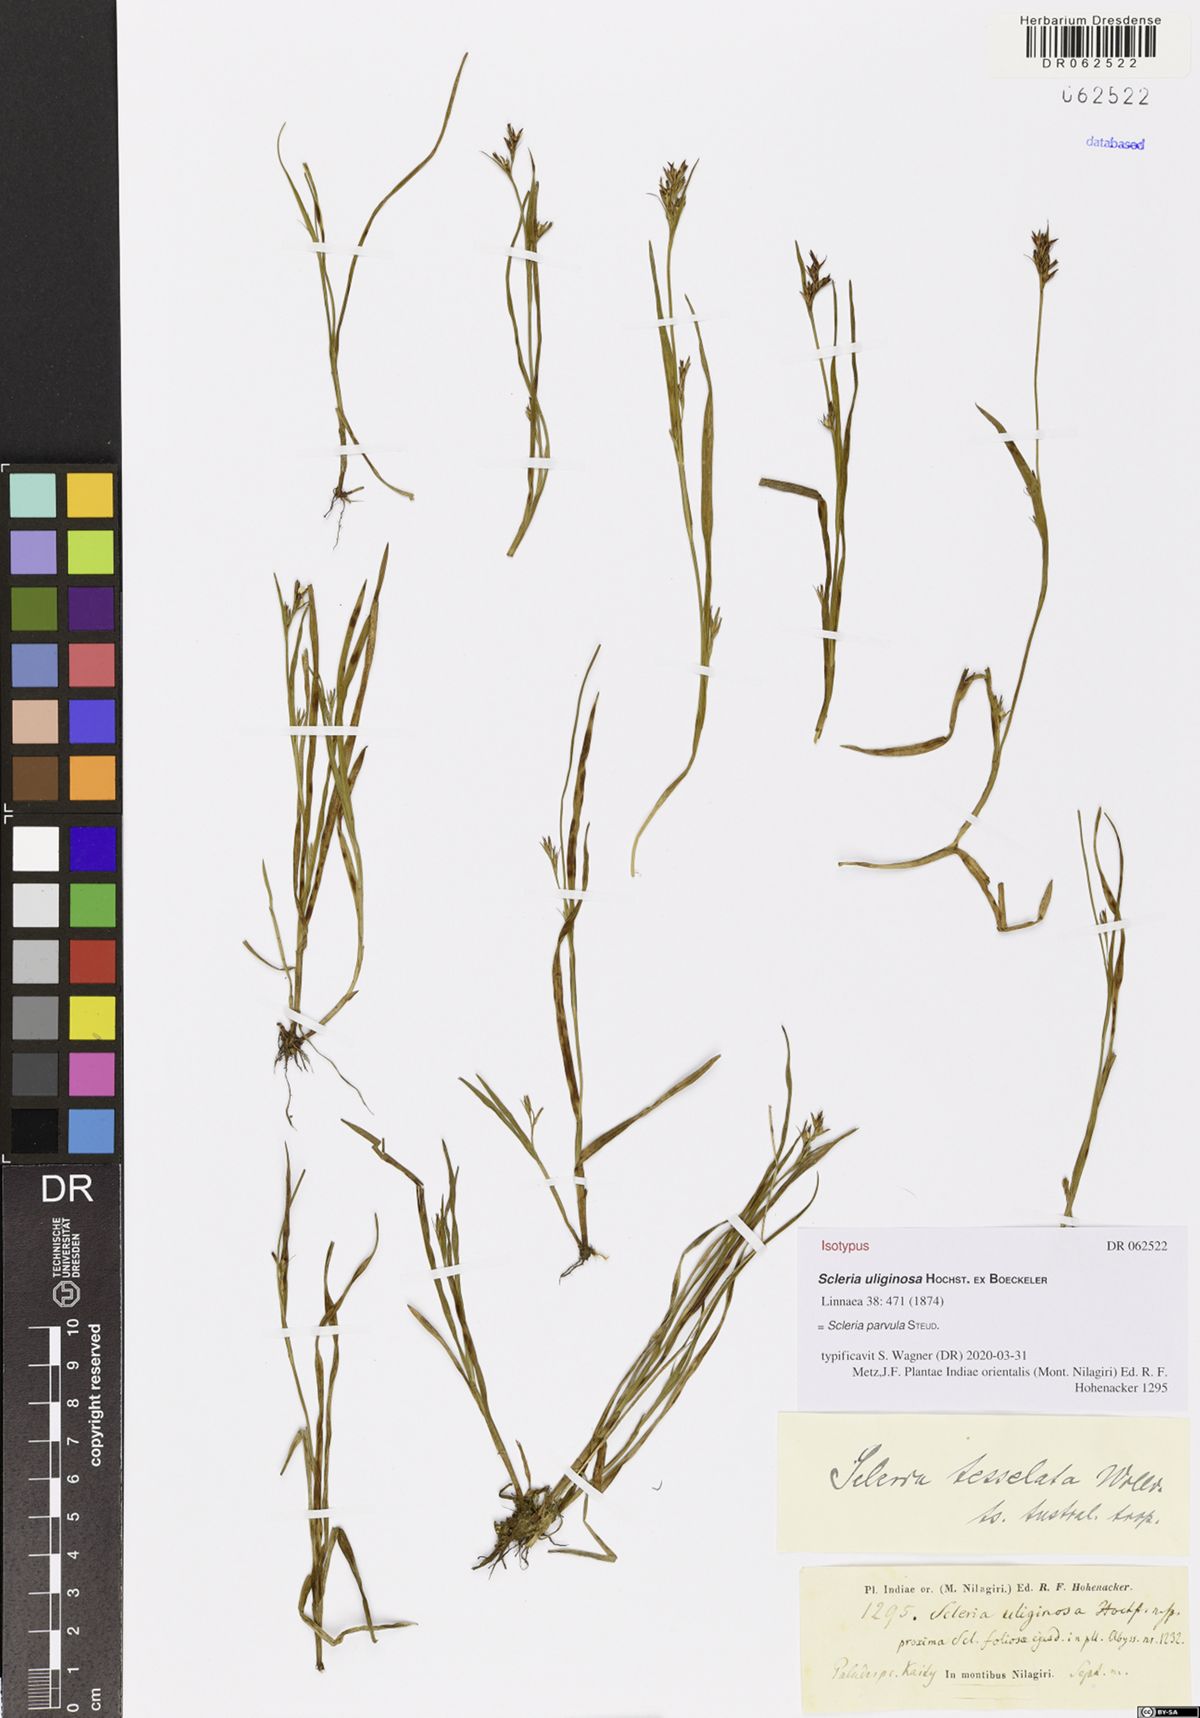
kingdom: Plantae
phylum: Tracheophyta
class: Liliopsida
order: Poales
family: Cyperaceae
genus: Scleria
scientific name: Scleria parvula
